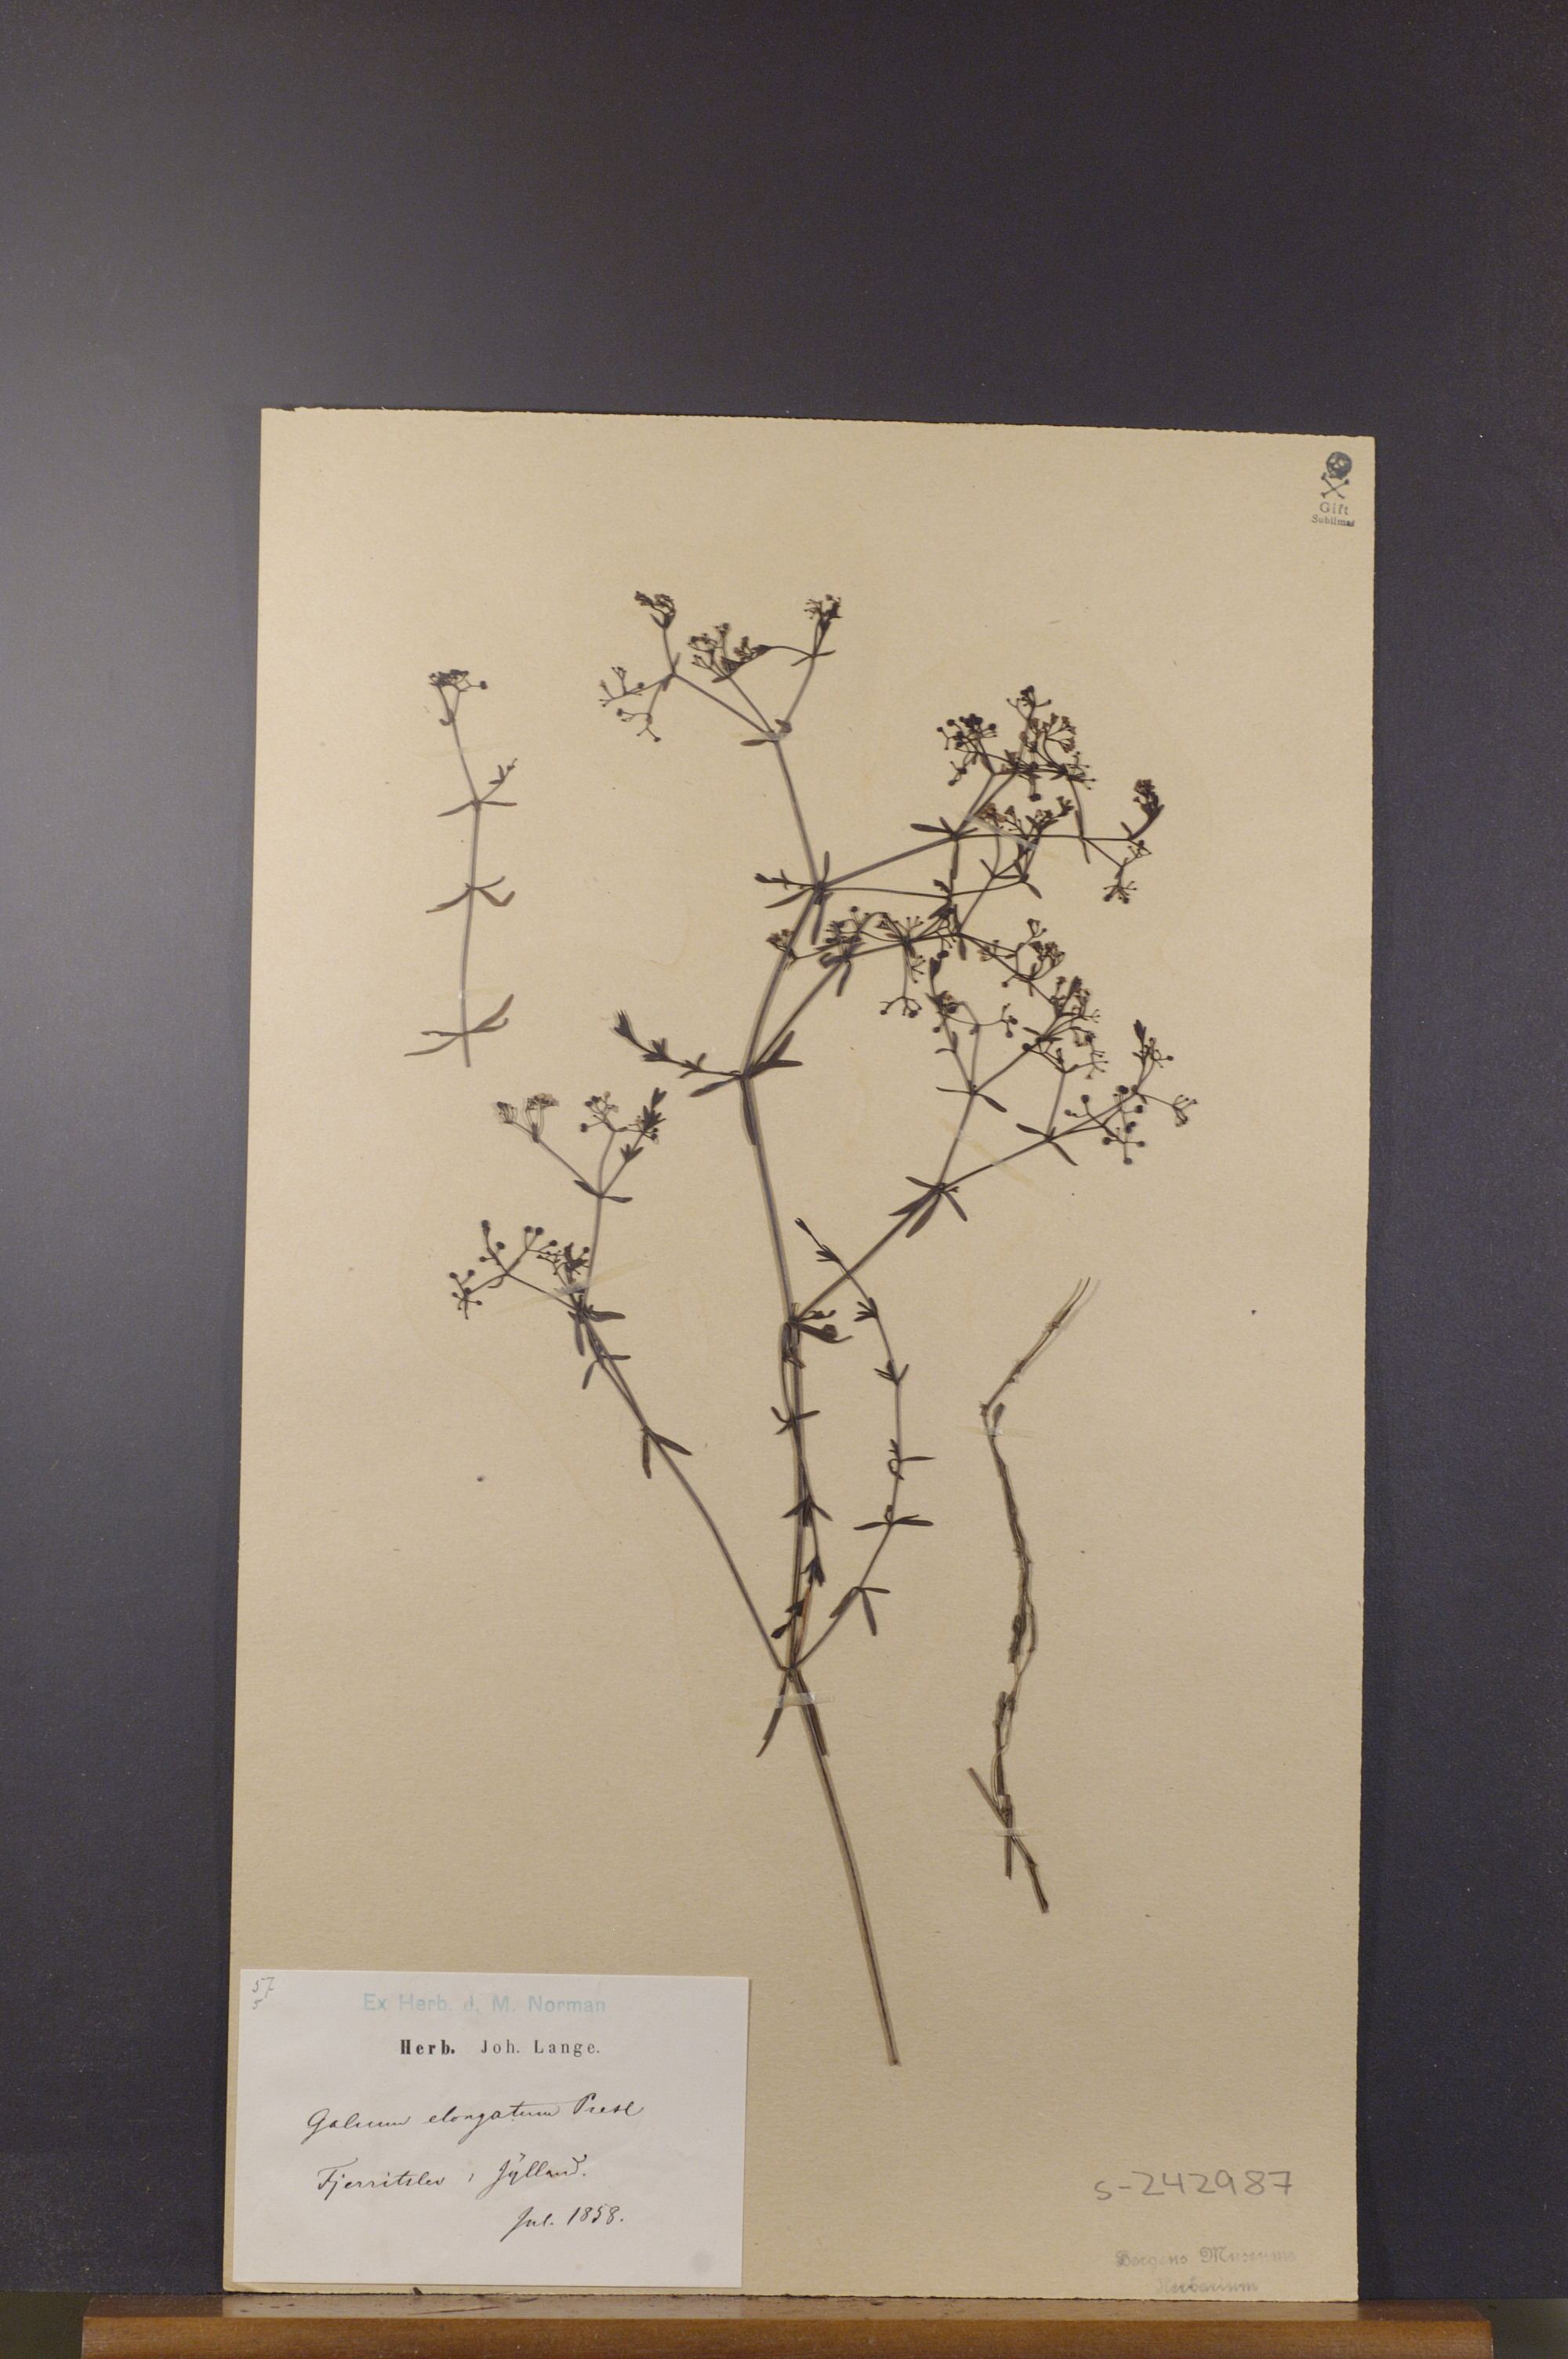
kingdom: Plantae
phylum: Tracheophyta
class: Magnoliopsida
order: Gentianales
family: Rubiaceae
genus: Galium
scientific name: Galium elongatum
